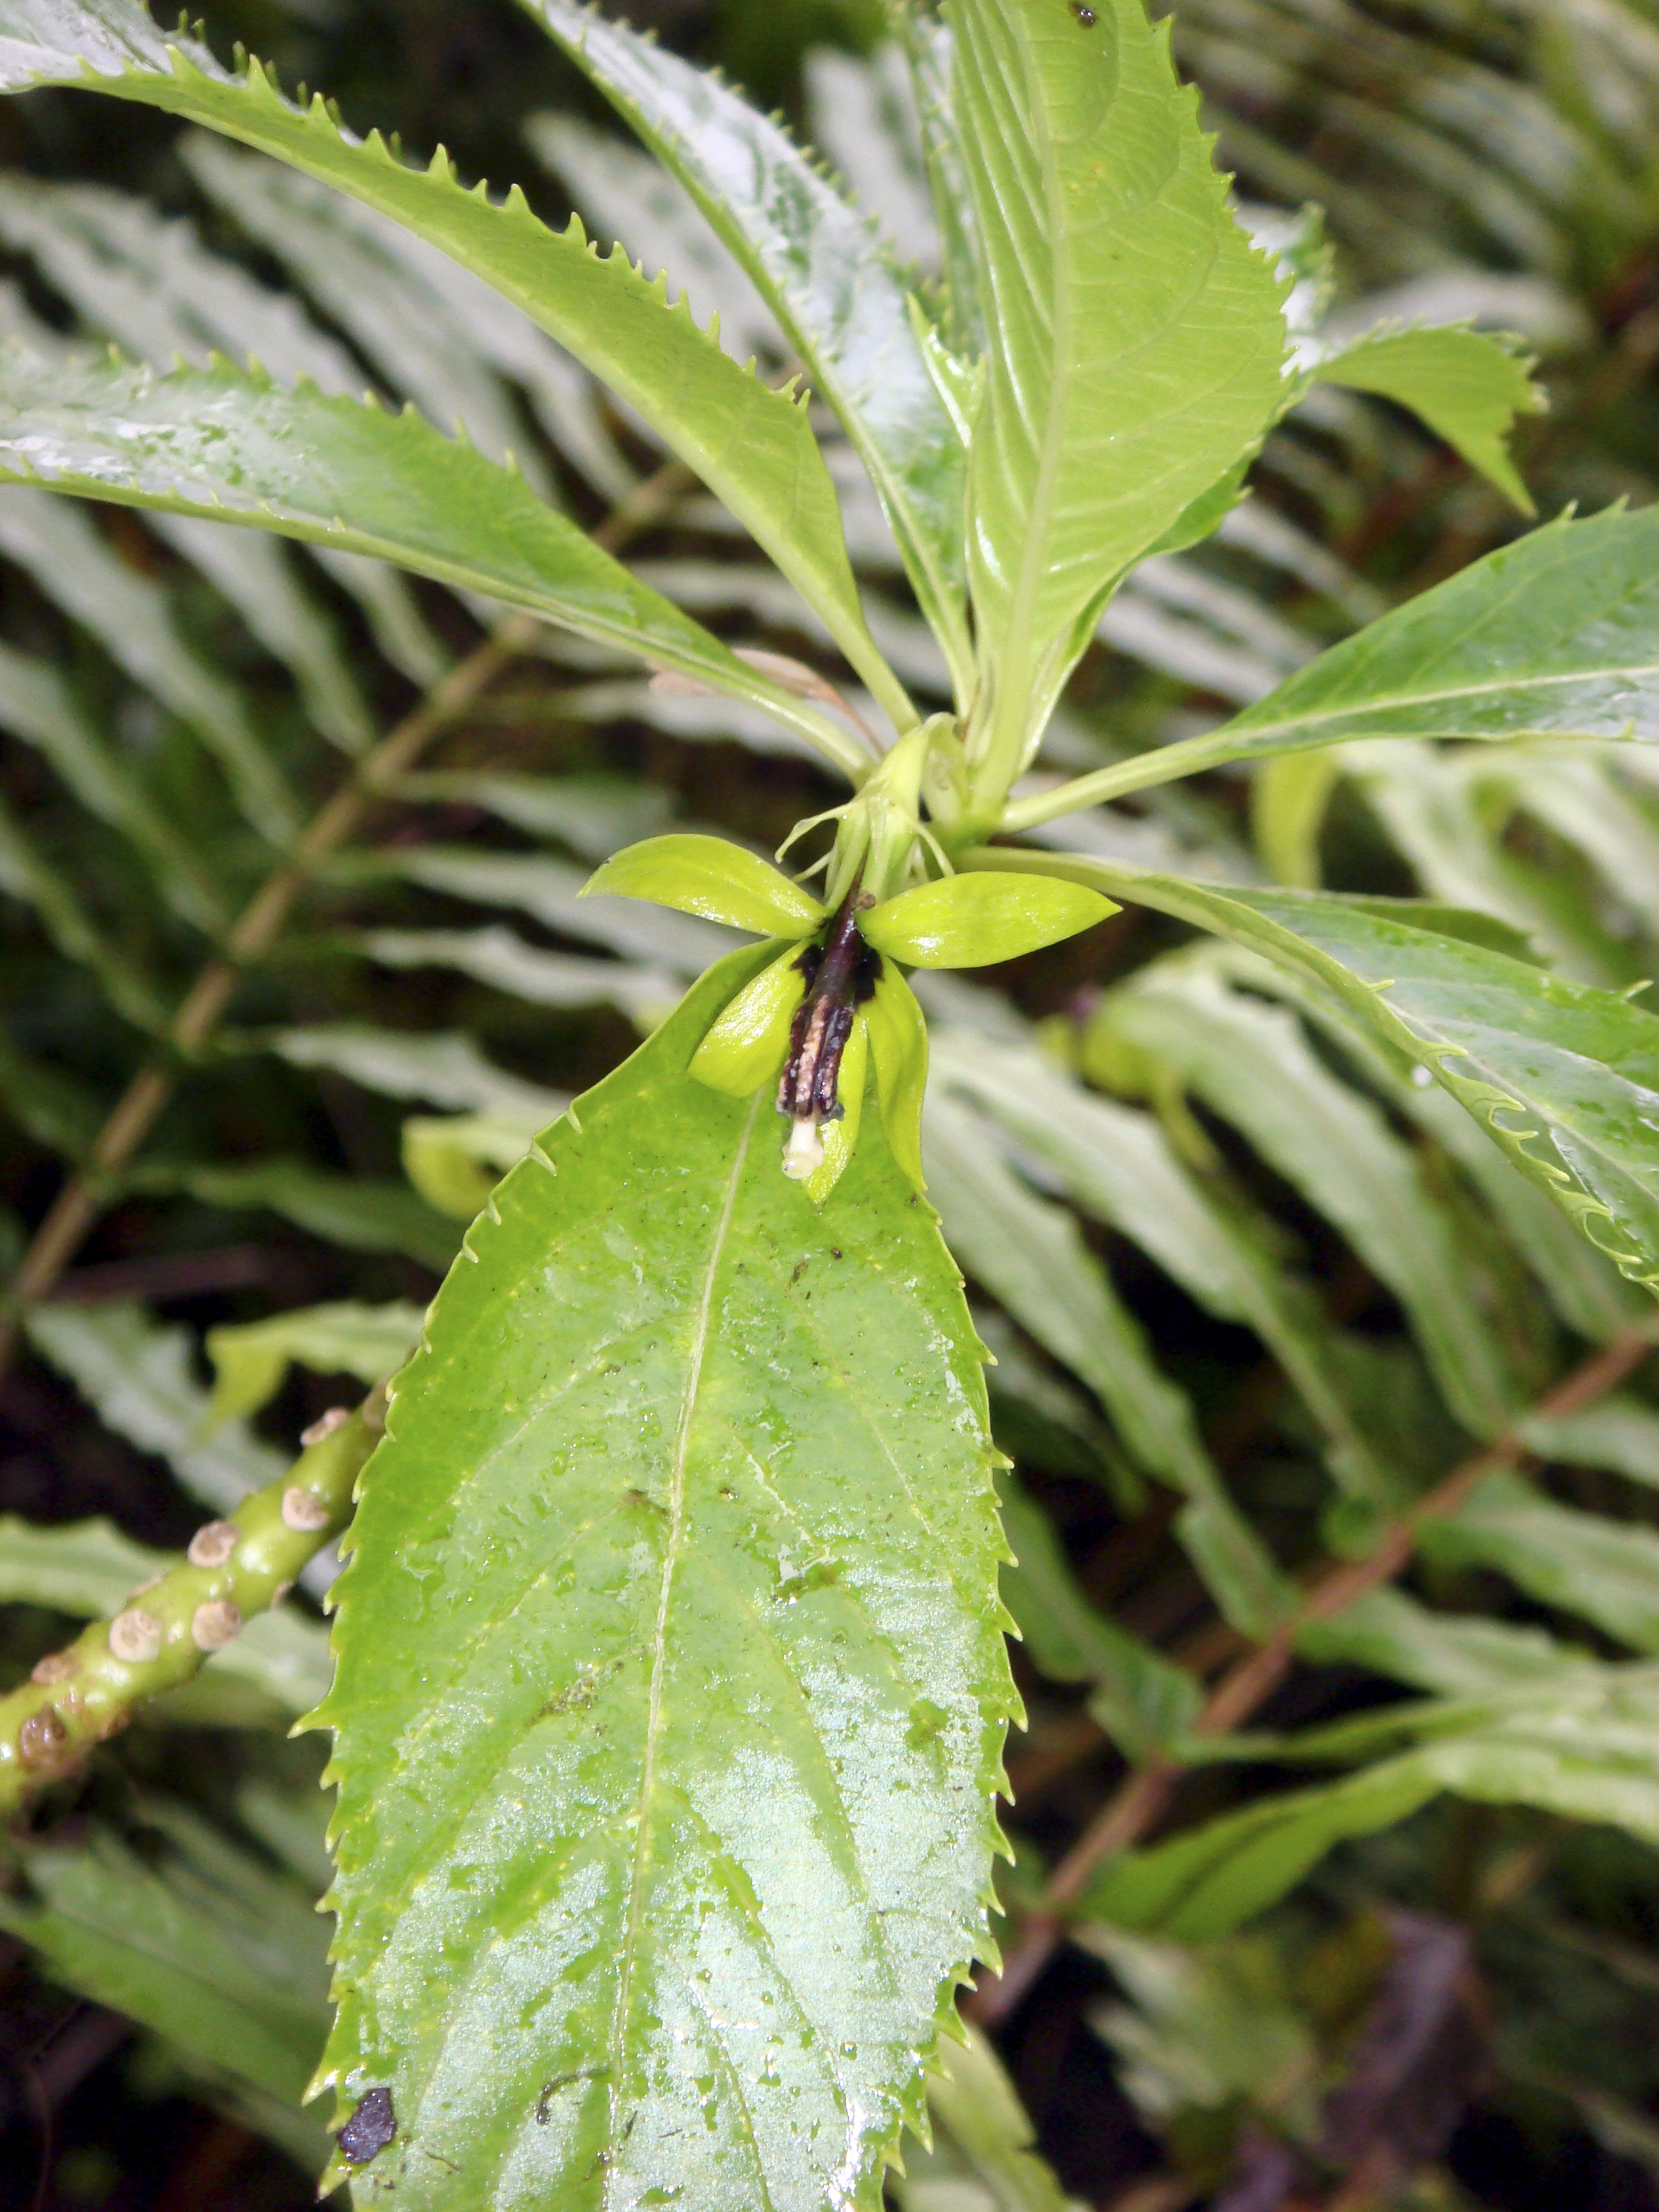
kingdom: Plantae
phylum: Tracheophyta
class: Magnoliopsida
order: Asterales
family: Campanulaceae
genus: Sclerotheca
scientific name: Sclerotheca viridiflora
